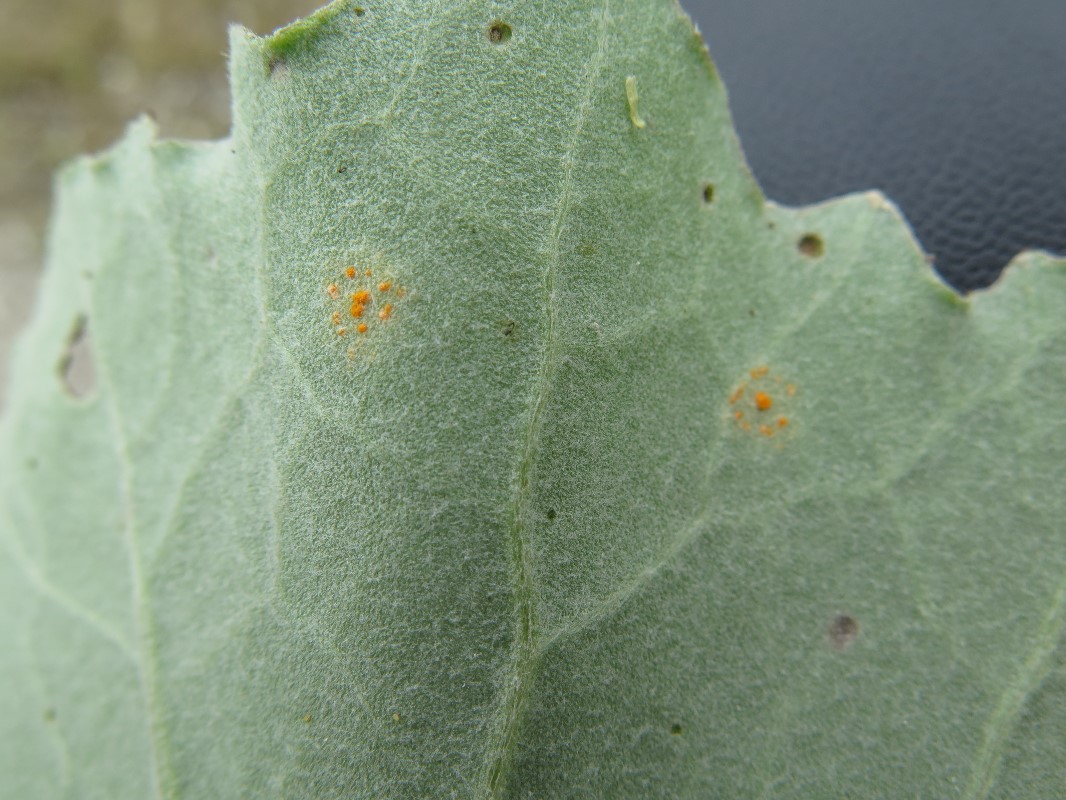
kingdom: Fungi
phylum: Basidiomycota
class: Pucciniomycetes
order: Pucciniales
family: Coleosporiaceae
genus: Coleosporium
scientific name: Coleosporium tussilaginis
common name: almindelig fyrrenålerust
